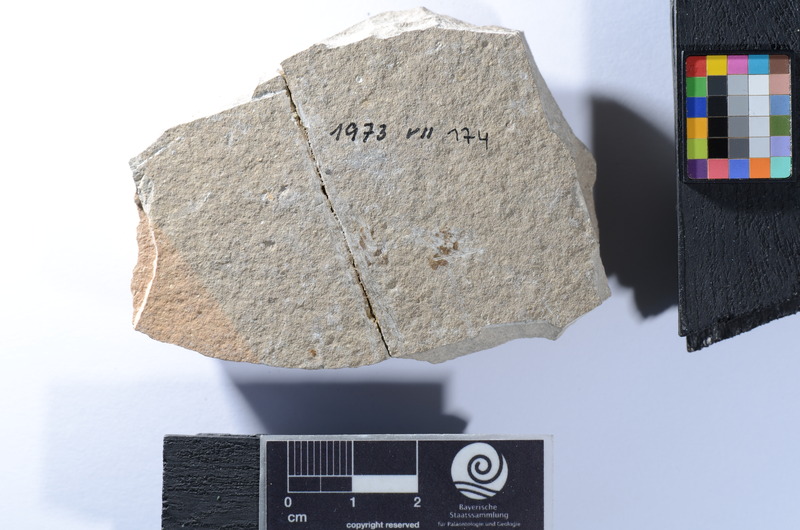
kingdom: Animalia
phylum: Chordata
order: Perciformes
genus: Smerdis
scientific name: Smerdis Perca minuta
